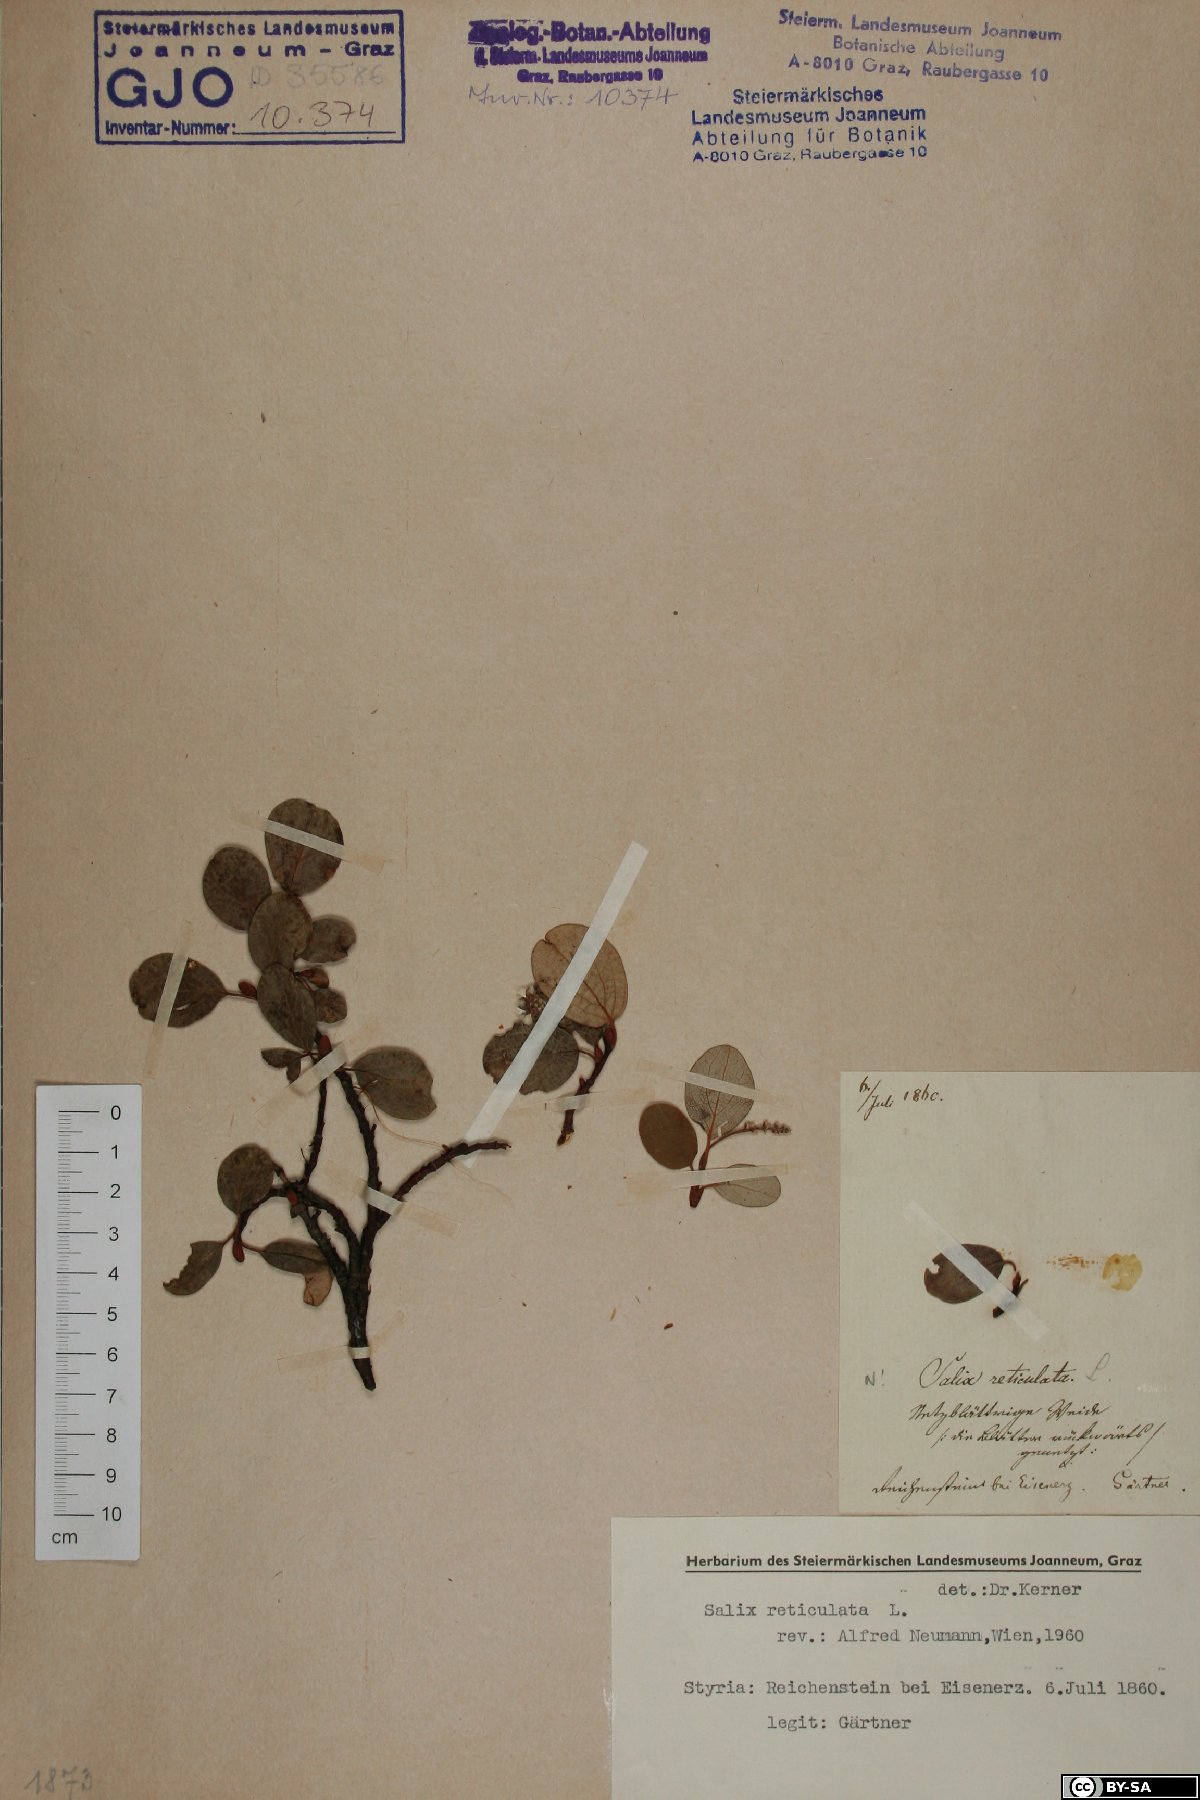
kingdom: Plantae
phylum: Tracheophyta
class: Magnoliopsida
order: Malpighiales
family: Salicaceae
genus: Salix
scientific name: Salix reticulata
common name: Net-leaved willow
